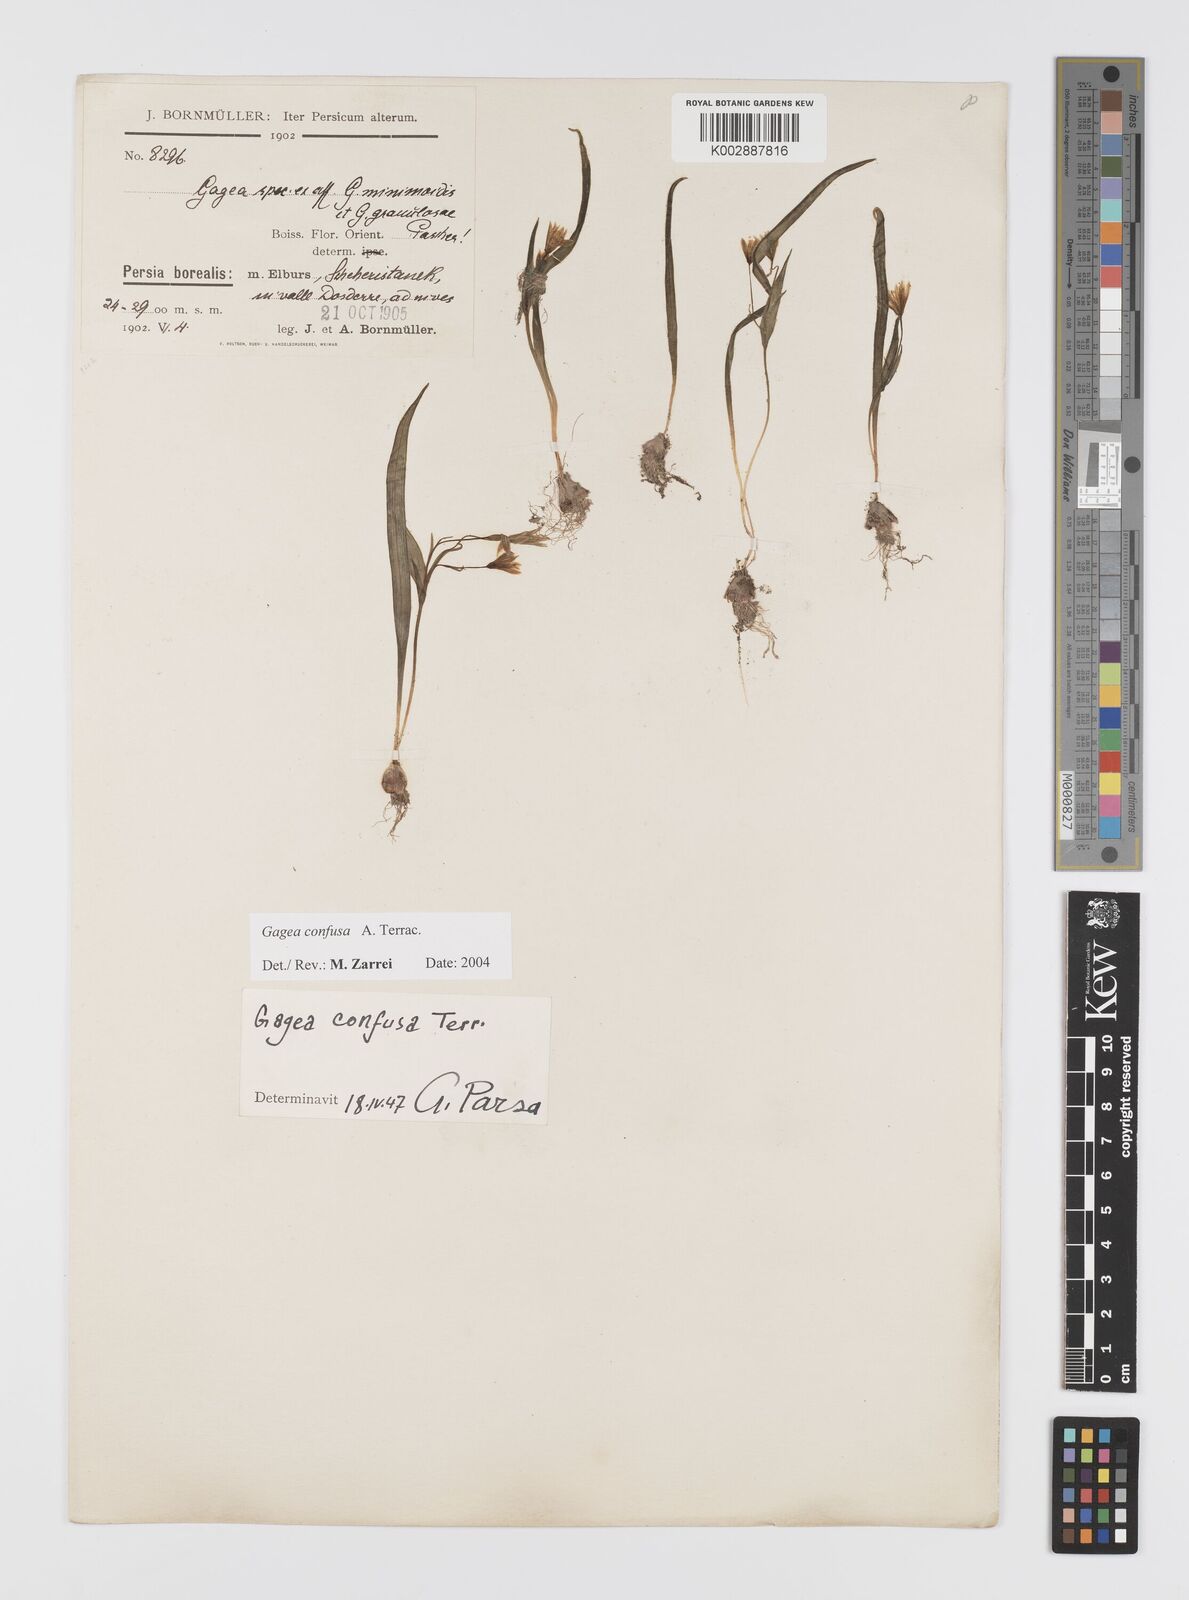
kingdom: Plantae
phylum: Tracheophyta
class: Liliopsida
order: Liliales
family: Liliaceae
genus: Gagea
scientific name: Gagea confusa
